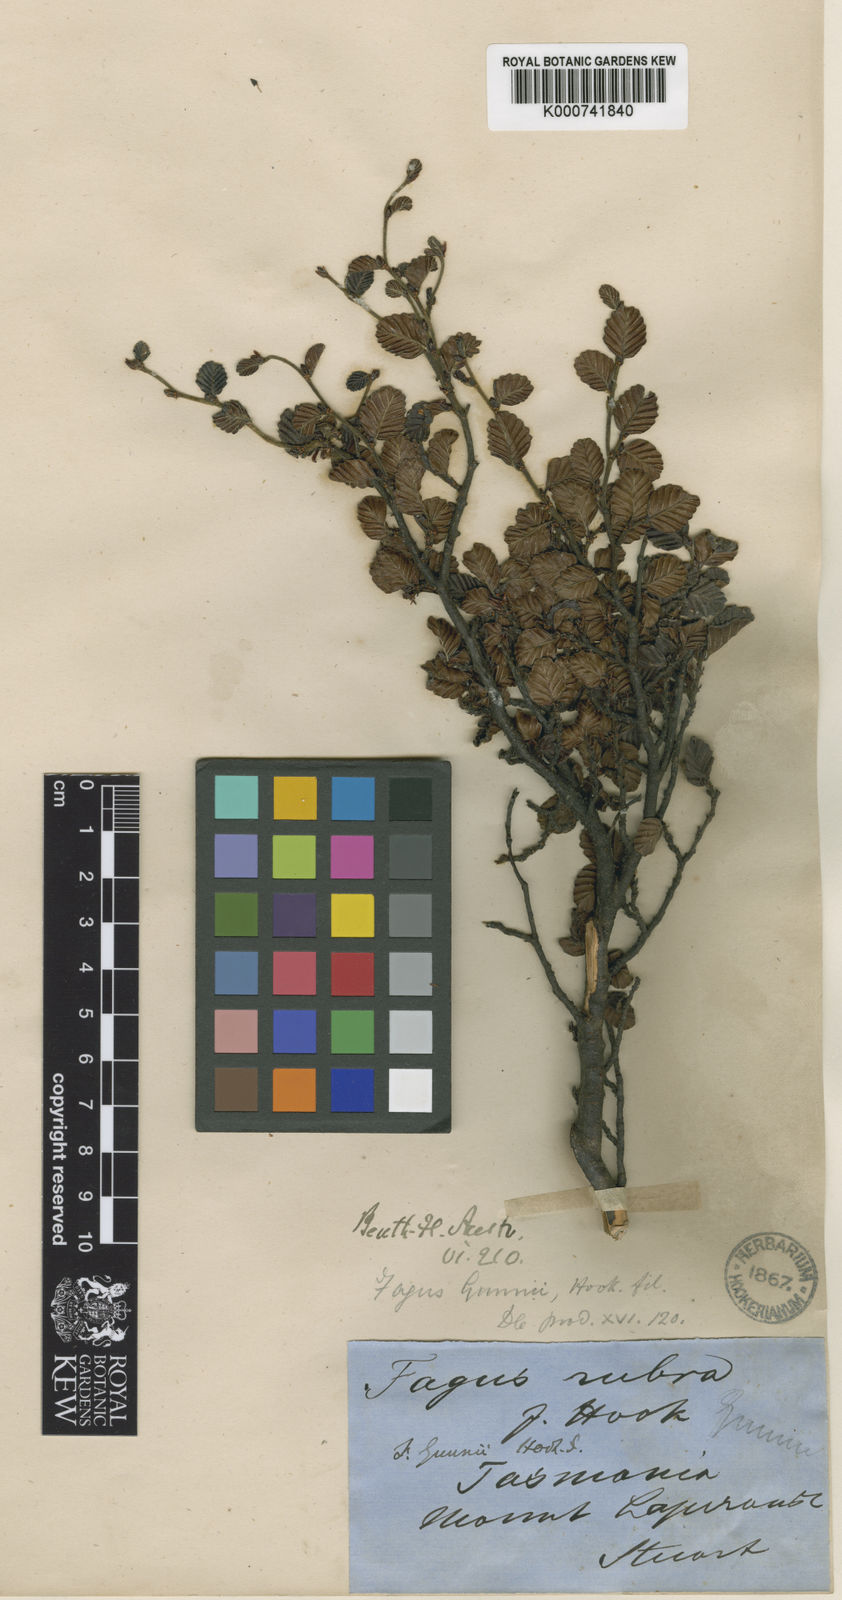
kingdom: Plantae
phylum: Tracheophyta
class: Magnoliopsida
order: Fagales
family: Nothofagaceae
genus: Nothofagus
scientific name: Nothofagus gunnii
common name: Tanglefoot
